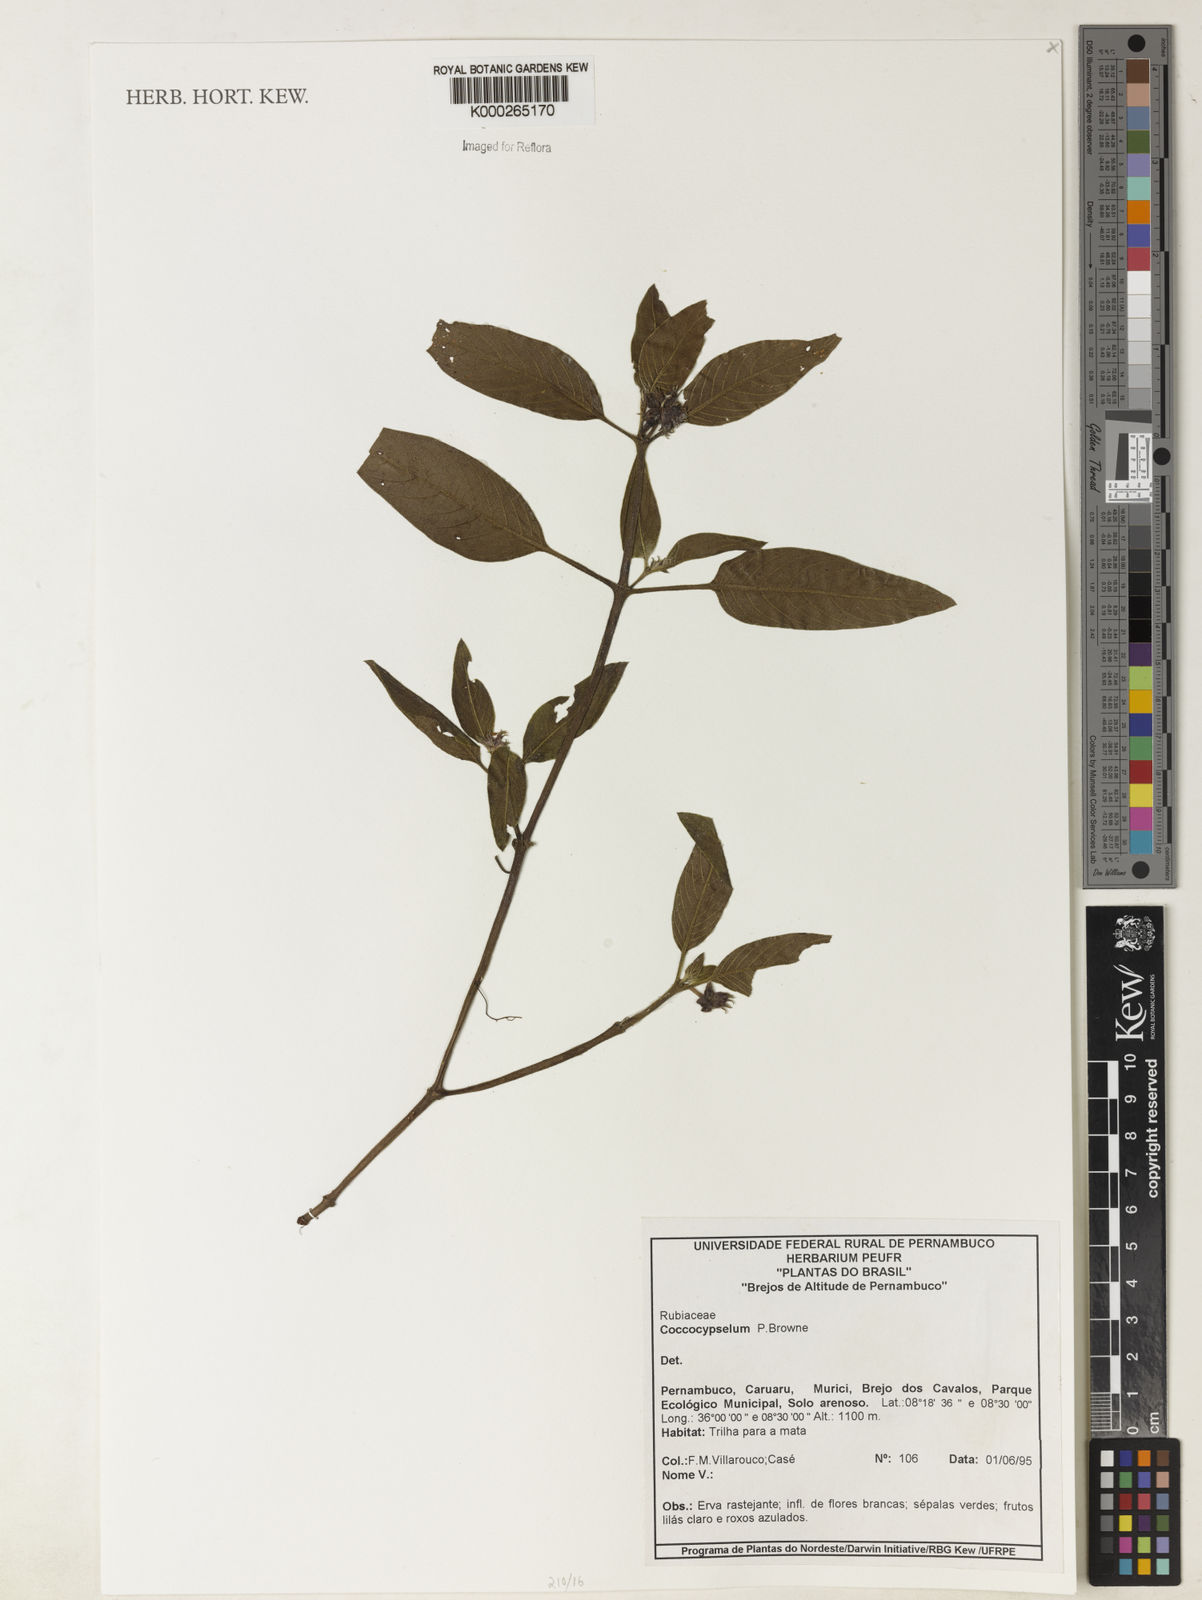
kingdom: Plantae
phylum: Tracheophyta
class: Magnoliopsida
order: Gentianales
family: Rubiaceae
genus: Coccocypselum
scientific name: Coccocypselum
